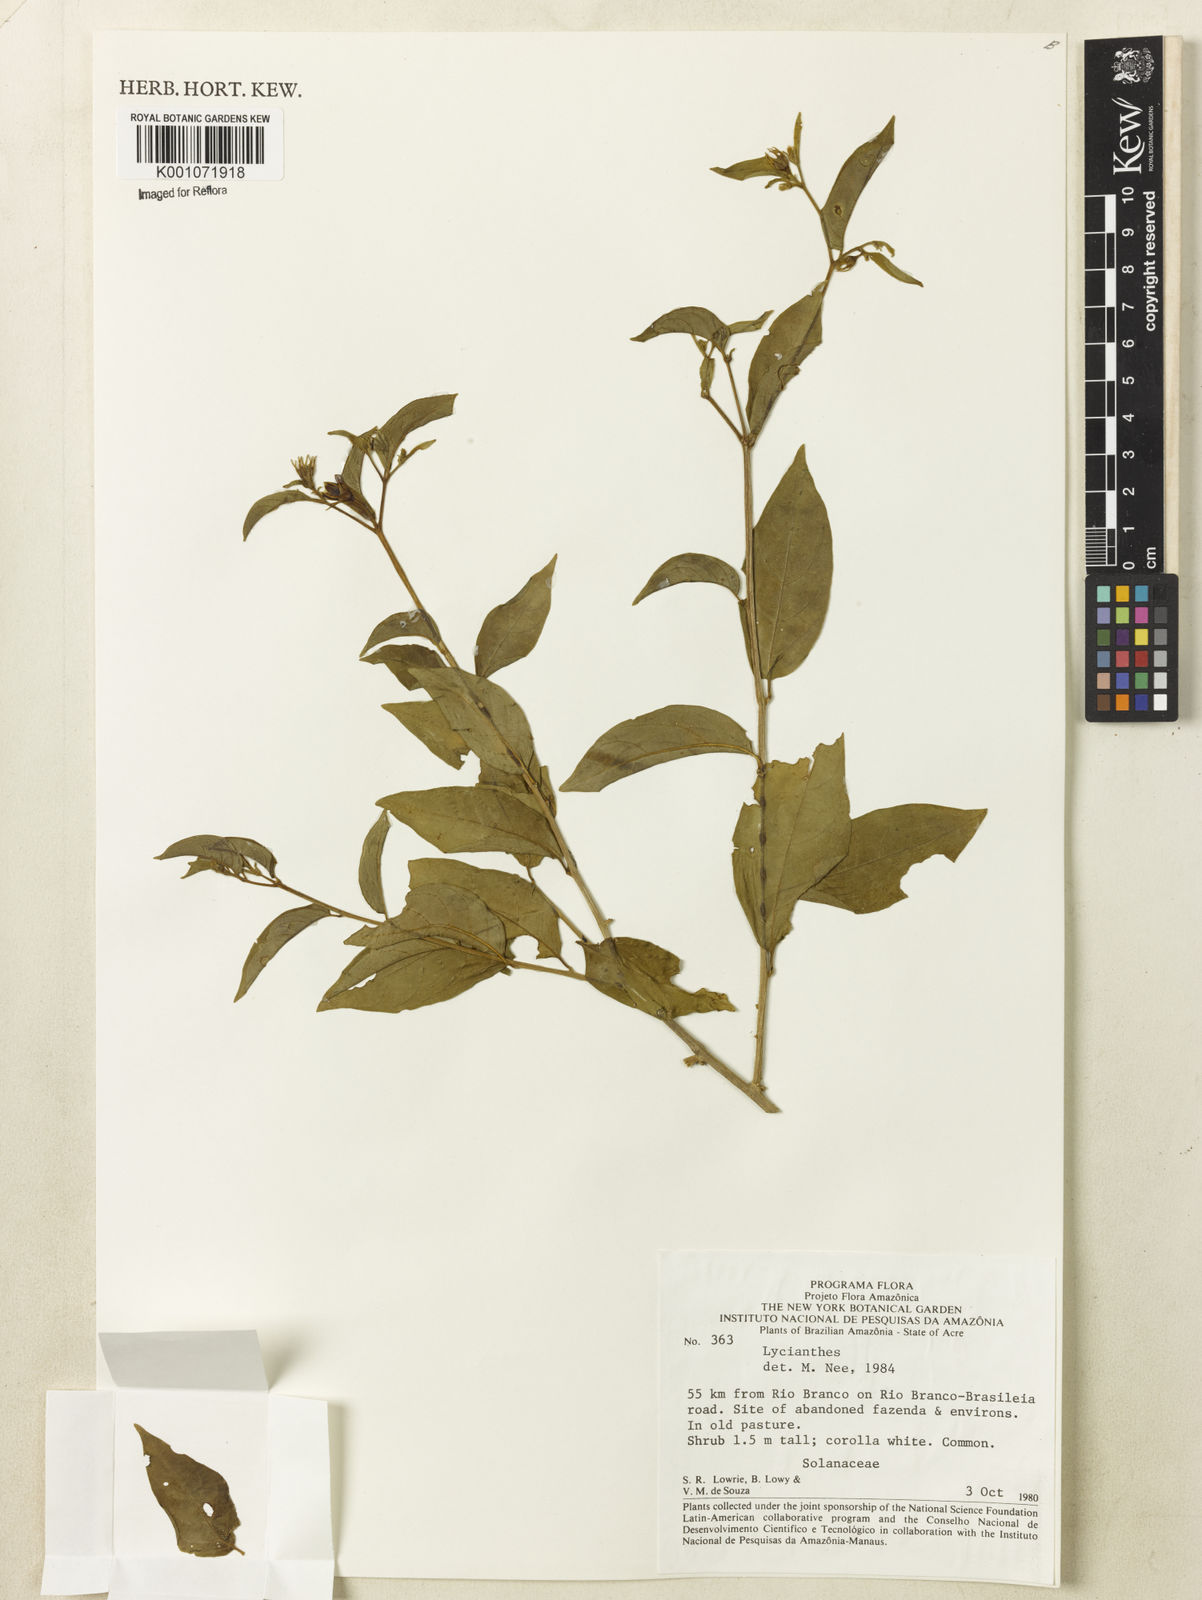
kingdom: Plantae
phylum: Tracheophyta
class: Magnoliopsida
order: Solanales
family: Solanaceae
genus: Lycianthes
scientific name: Lycianthes
